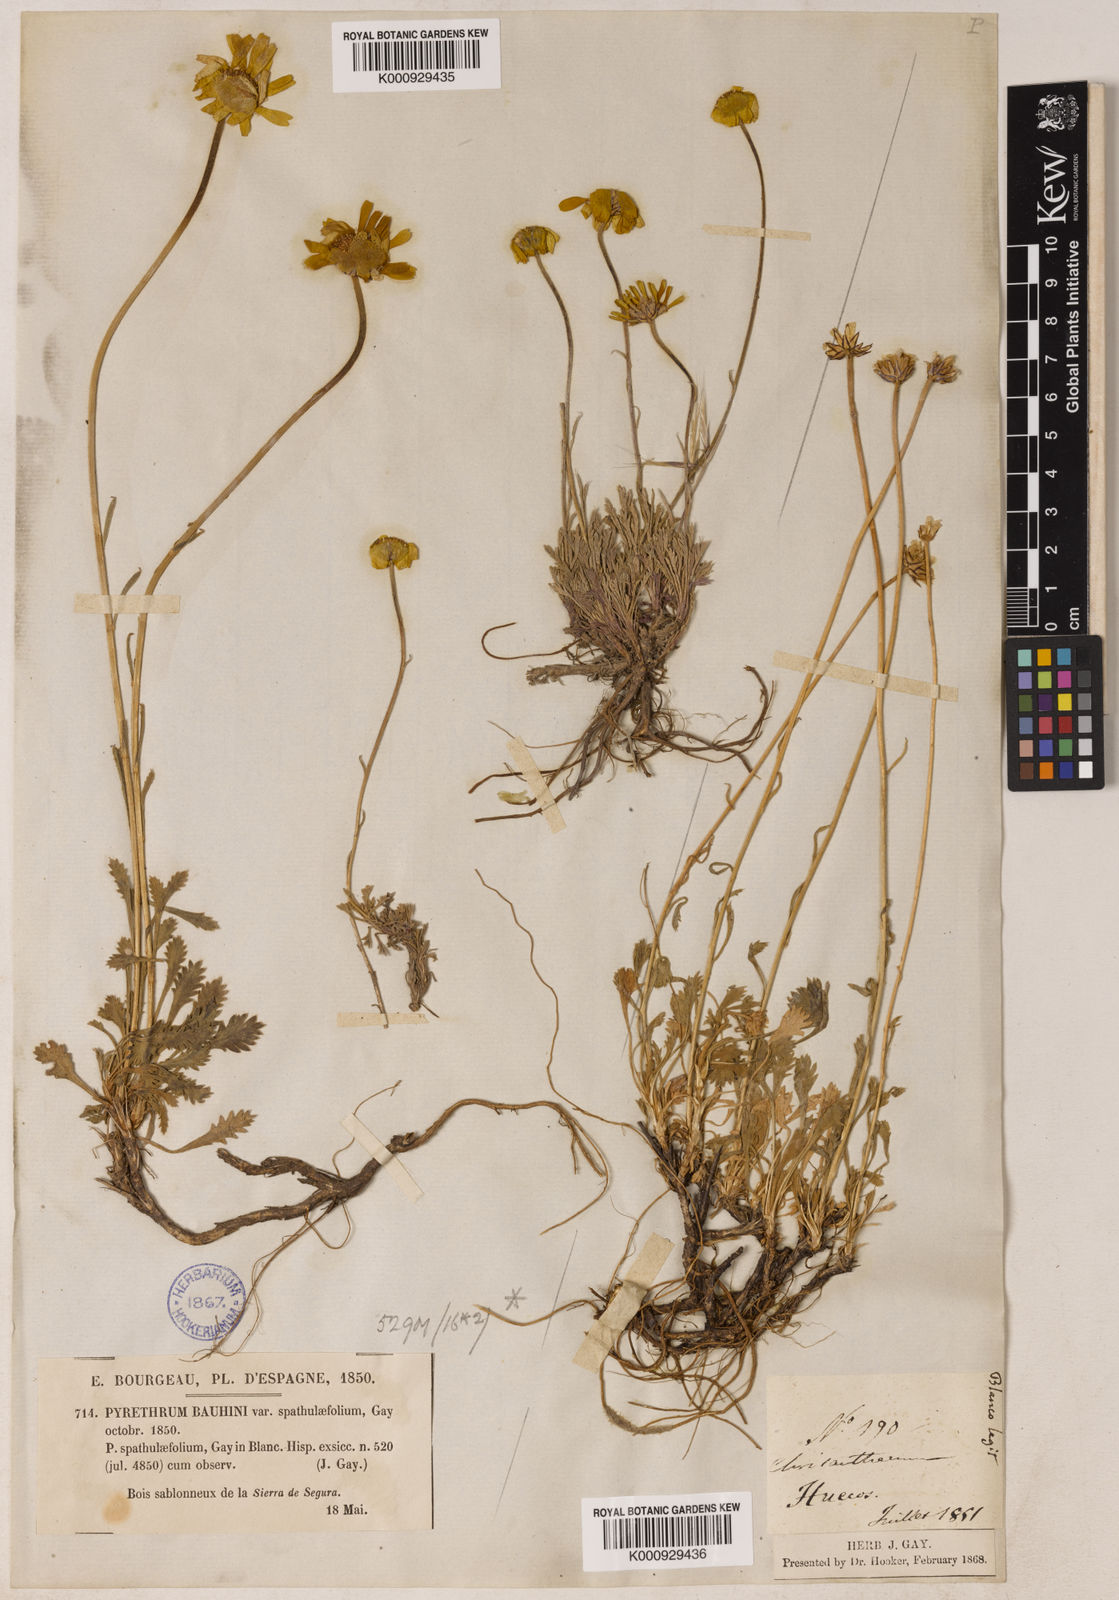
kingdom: Plantae
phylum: Tracheophyta
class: Magnoliopsida
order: Asterales
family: Asteraceae
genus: Leucanthemopsis
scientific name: Leucanthemopsis spathulifolia
